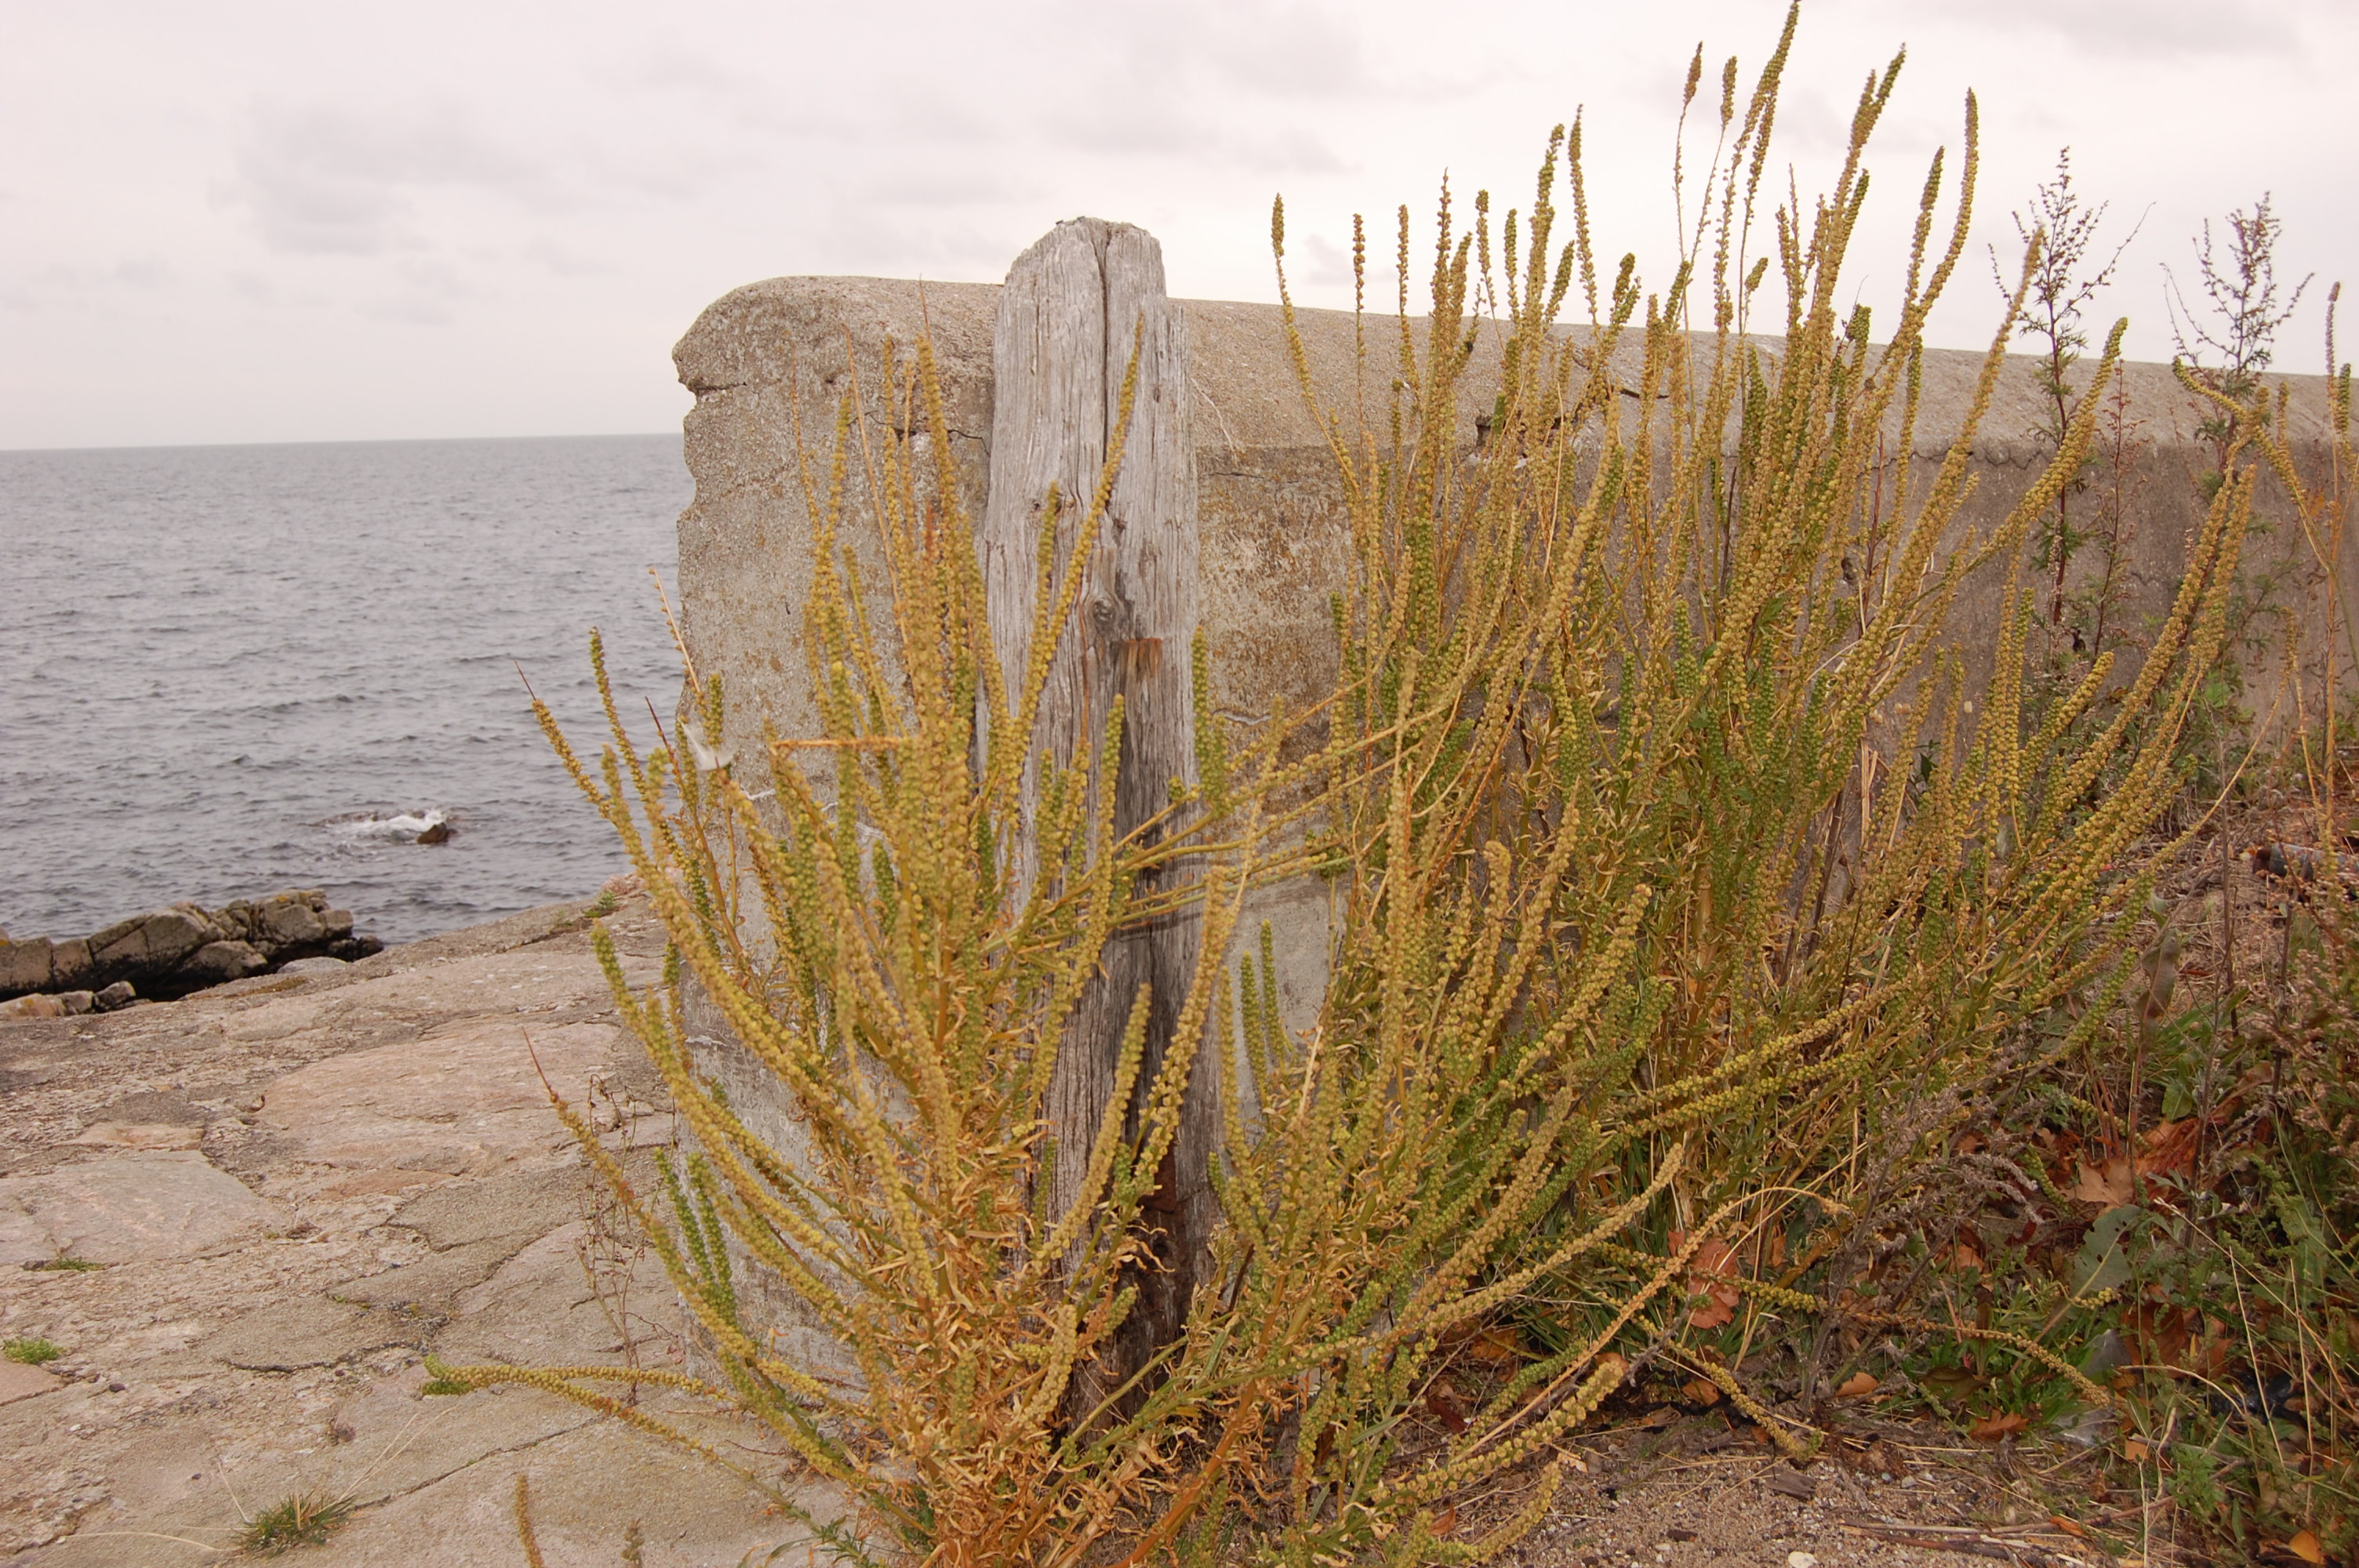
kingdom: Plantae
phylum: Tracheophyta
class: Magnoliopsida
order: Brassicales
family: Resedaceae
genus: Reseda
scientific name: Reseda luteola
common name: Weld
